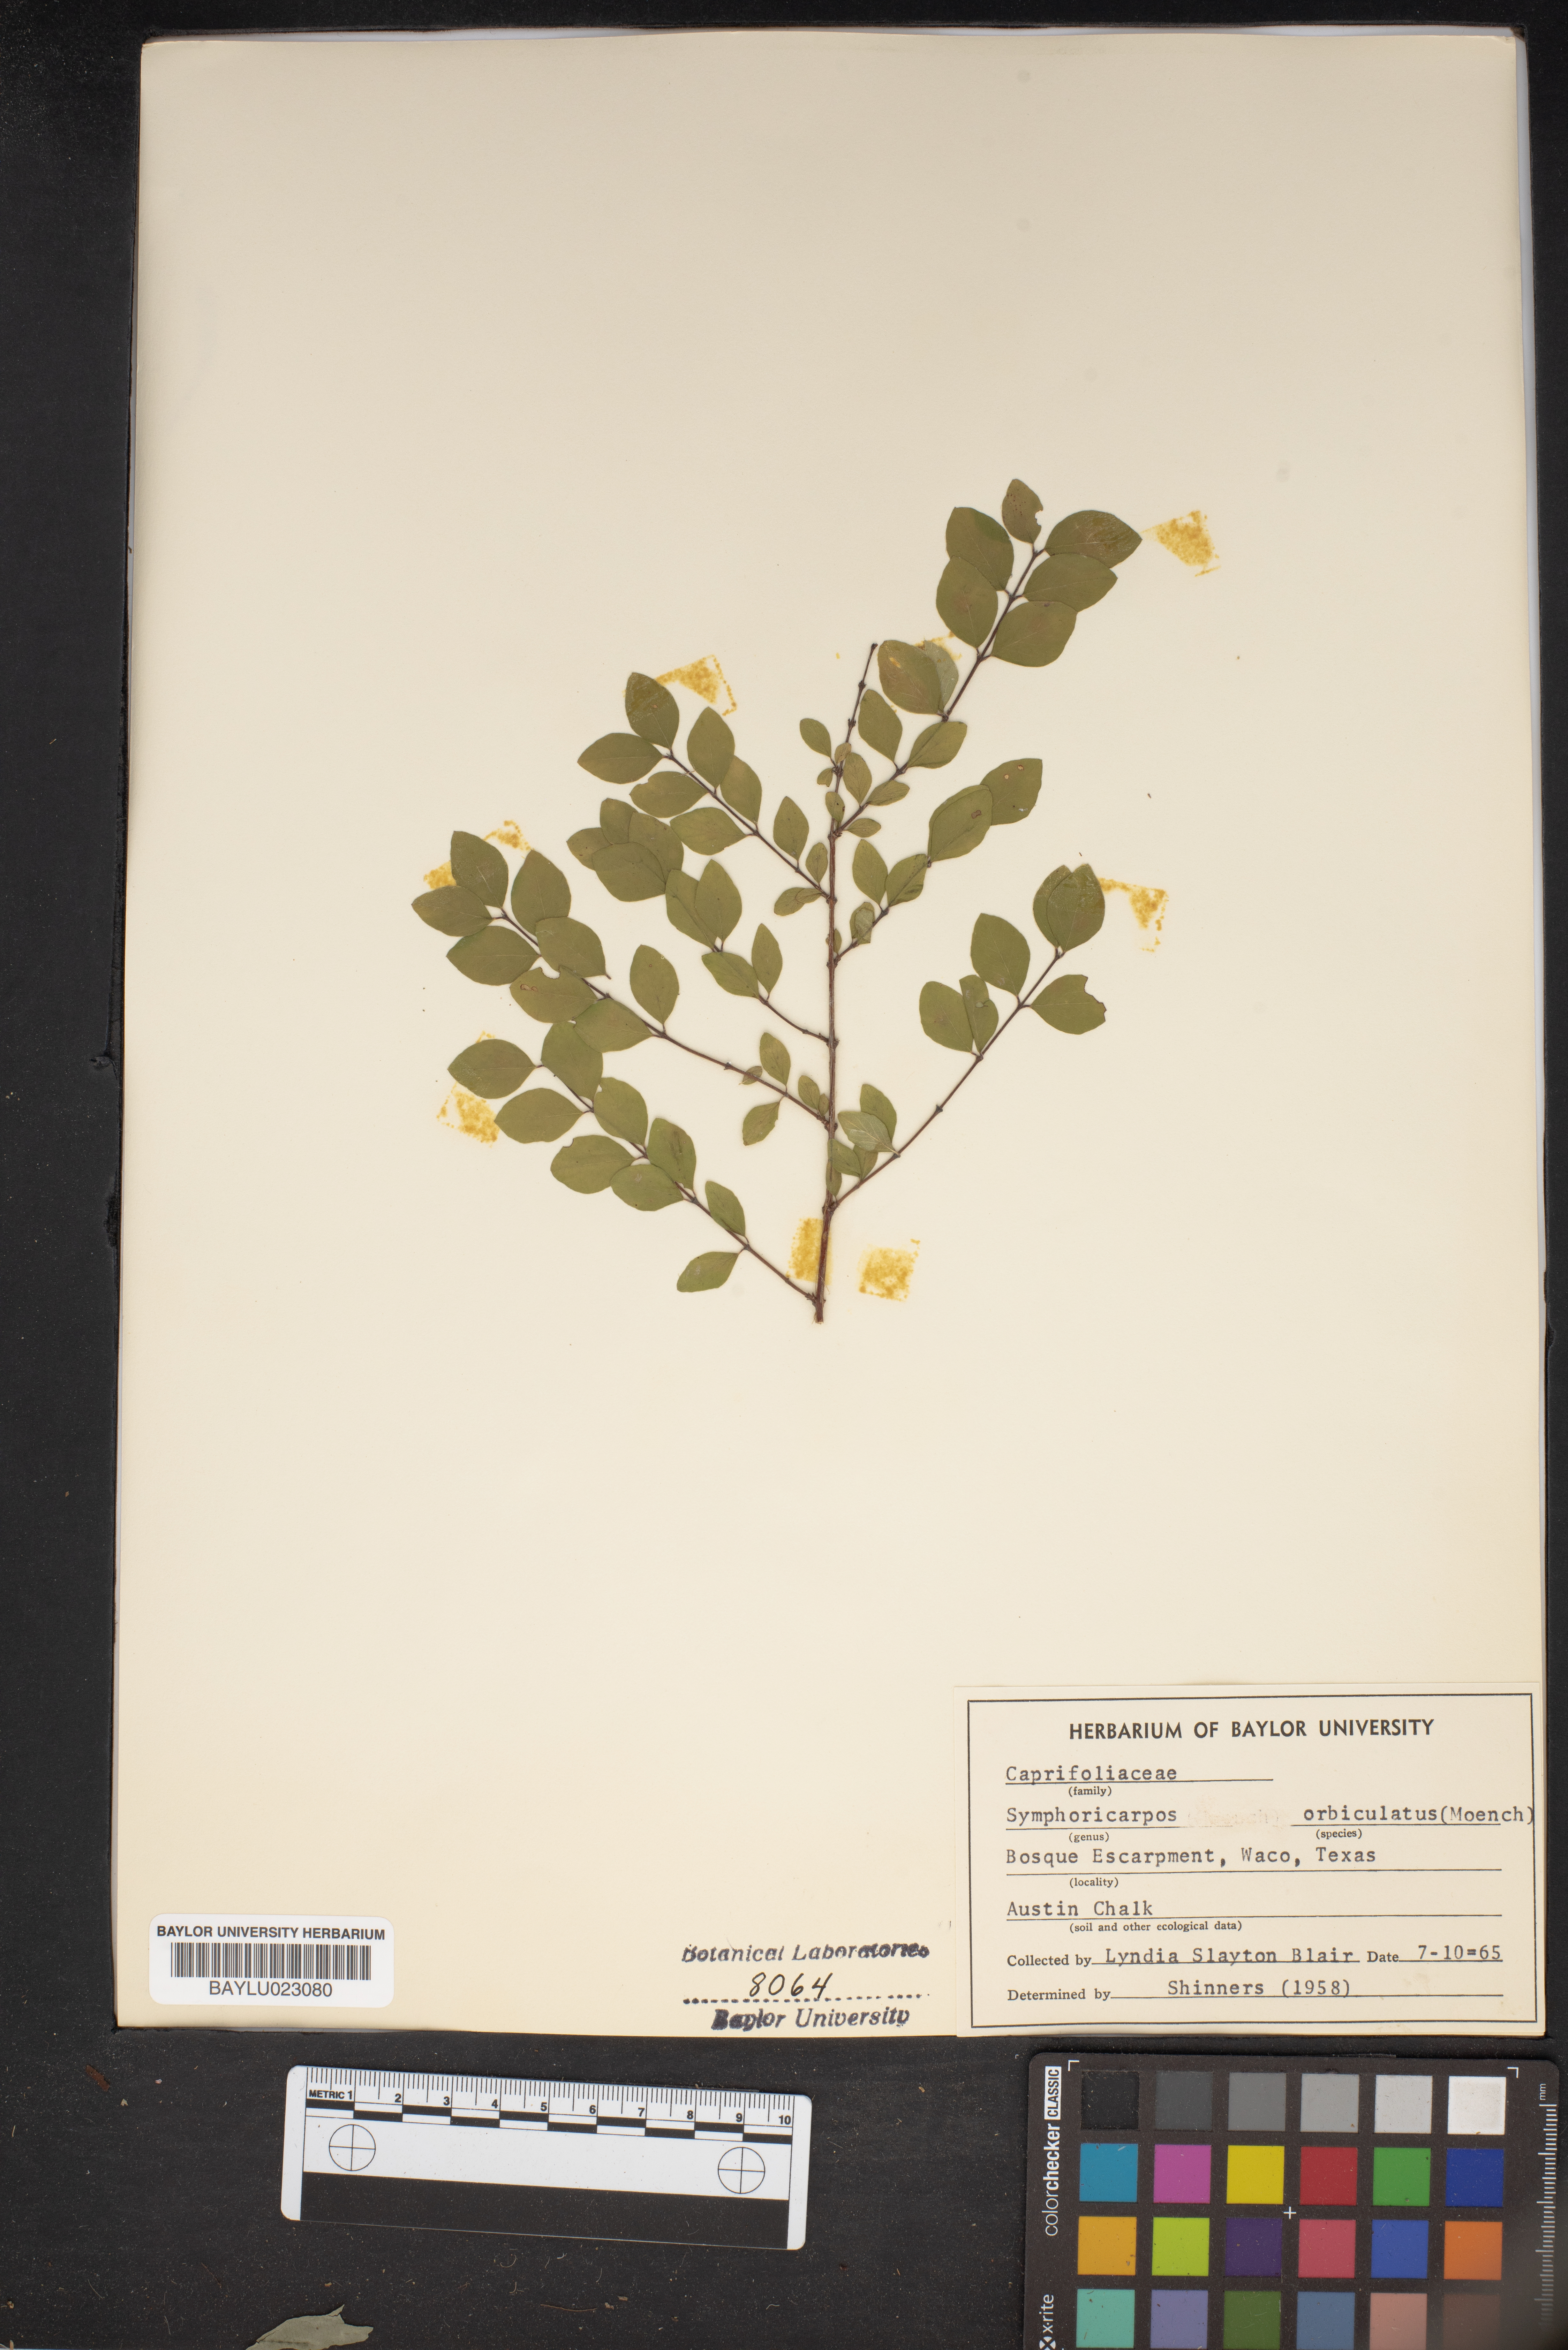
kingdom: Plantae
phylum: Tracheophyta
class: Magnoliopsida
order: Dipsacales
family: Caprifoliaceae
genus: Symphoricarpos
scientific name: Symphoricarpos orbiculatus
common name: Coralberry
